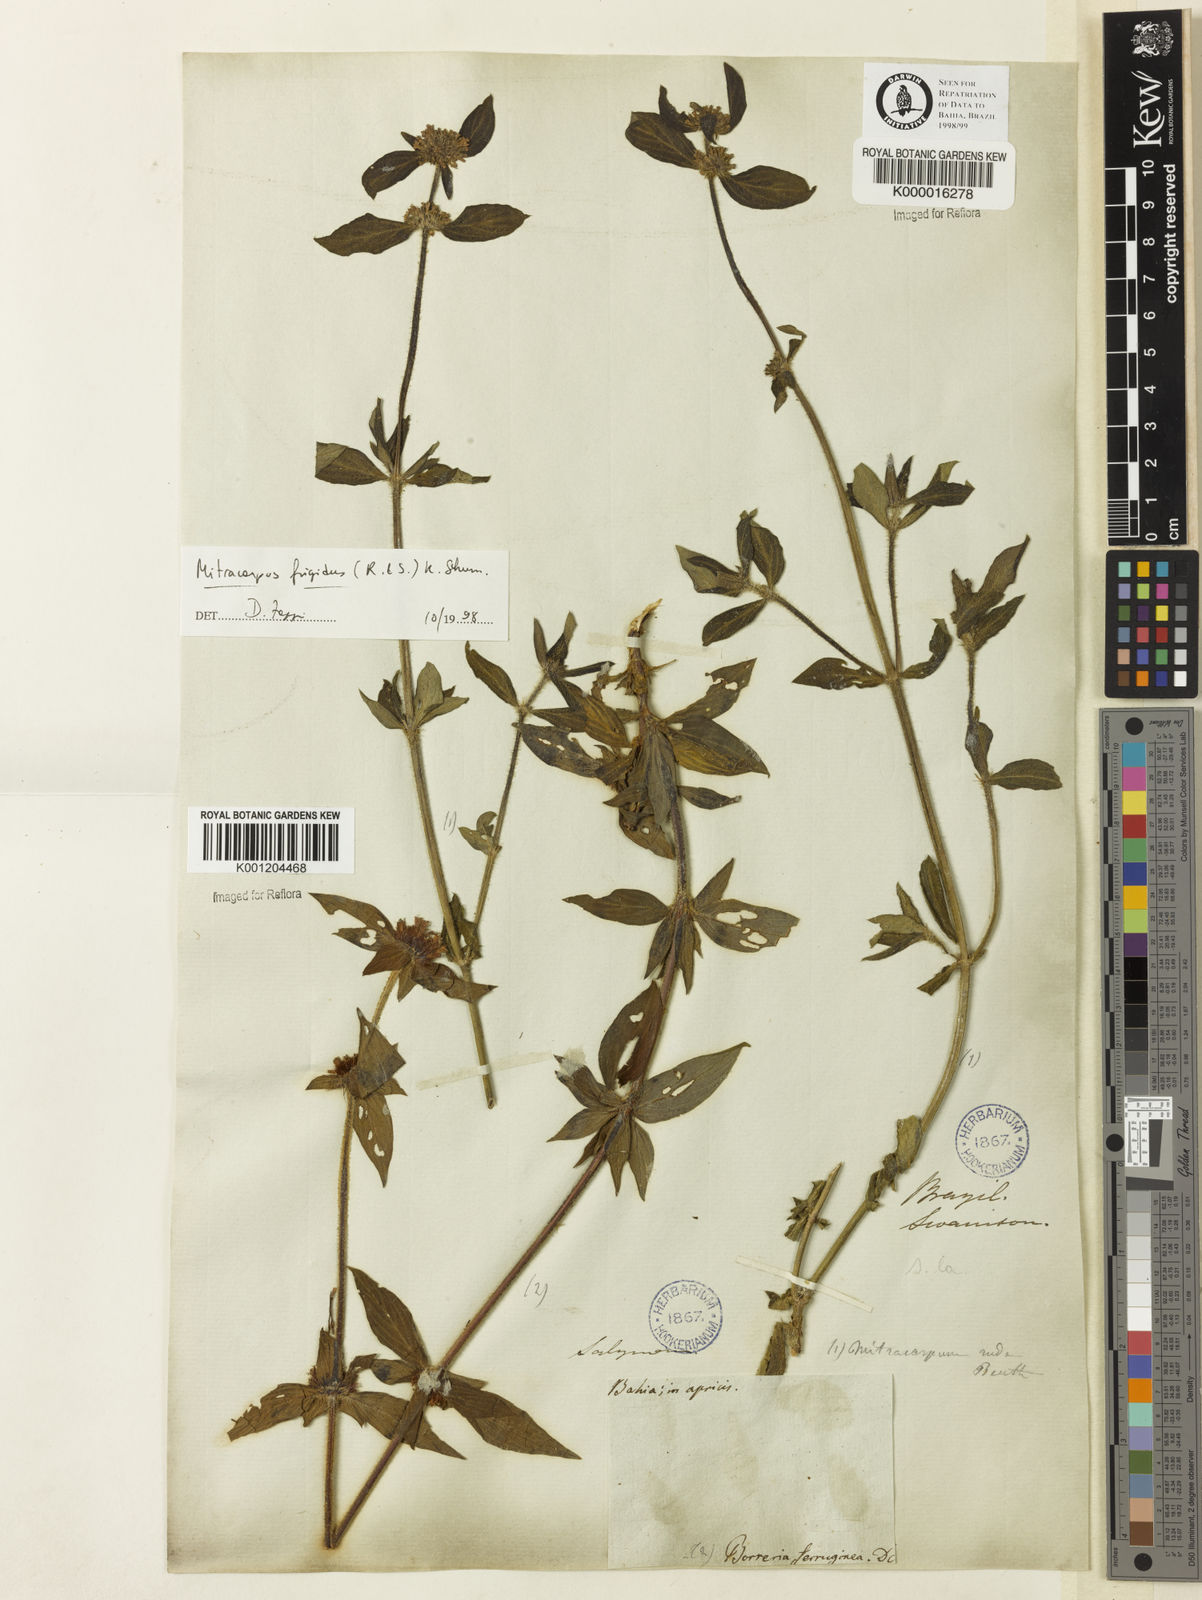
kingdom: Plantae
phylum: Tracheophyta
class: Magnoliopsida
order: Gentianales
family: Rubiaceae
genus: Mitracarpus
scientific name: Mitracarpus frigidus
